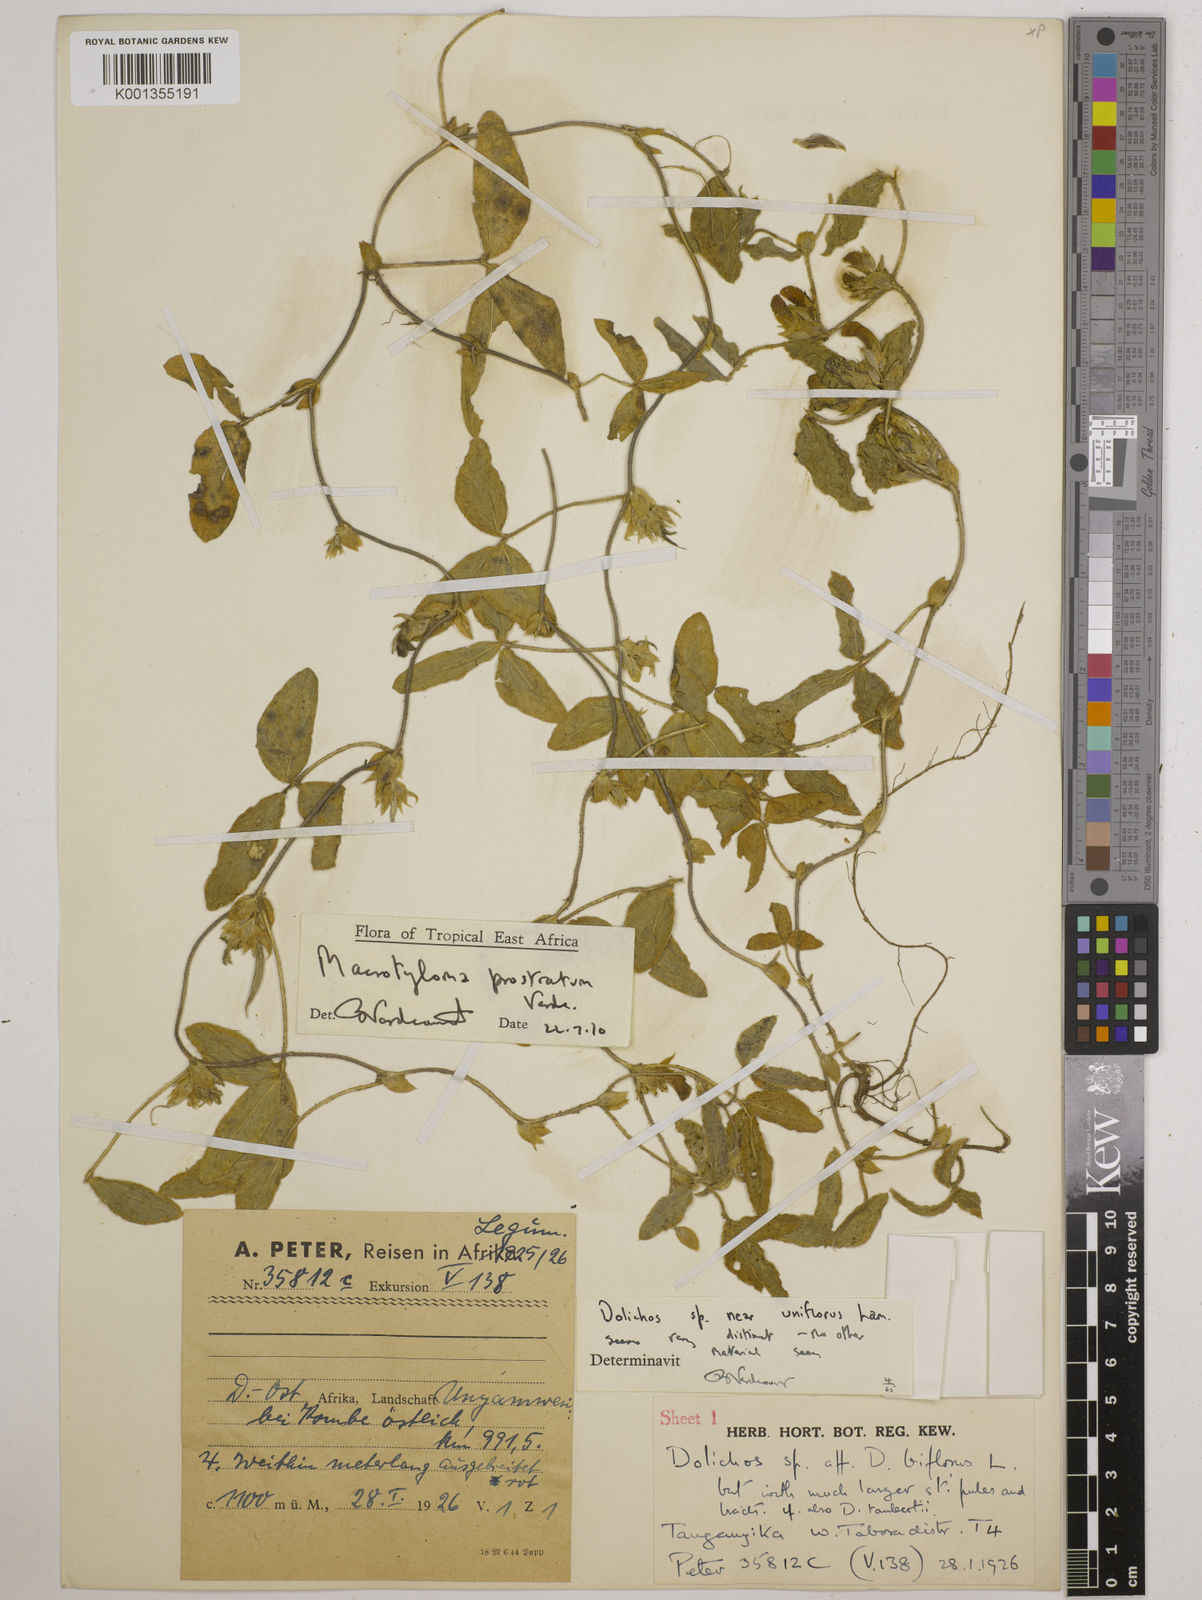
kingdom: Plantae
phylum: Tracheophyta
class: Magnoliopsida
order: Fabales
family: Fabaceae
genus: Macrotyloma
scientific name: Macrotyloma prostratum
